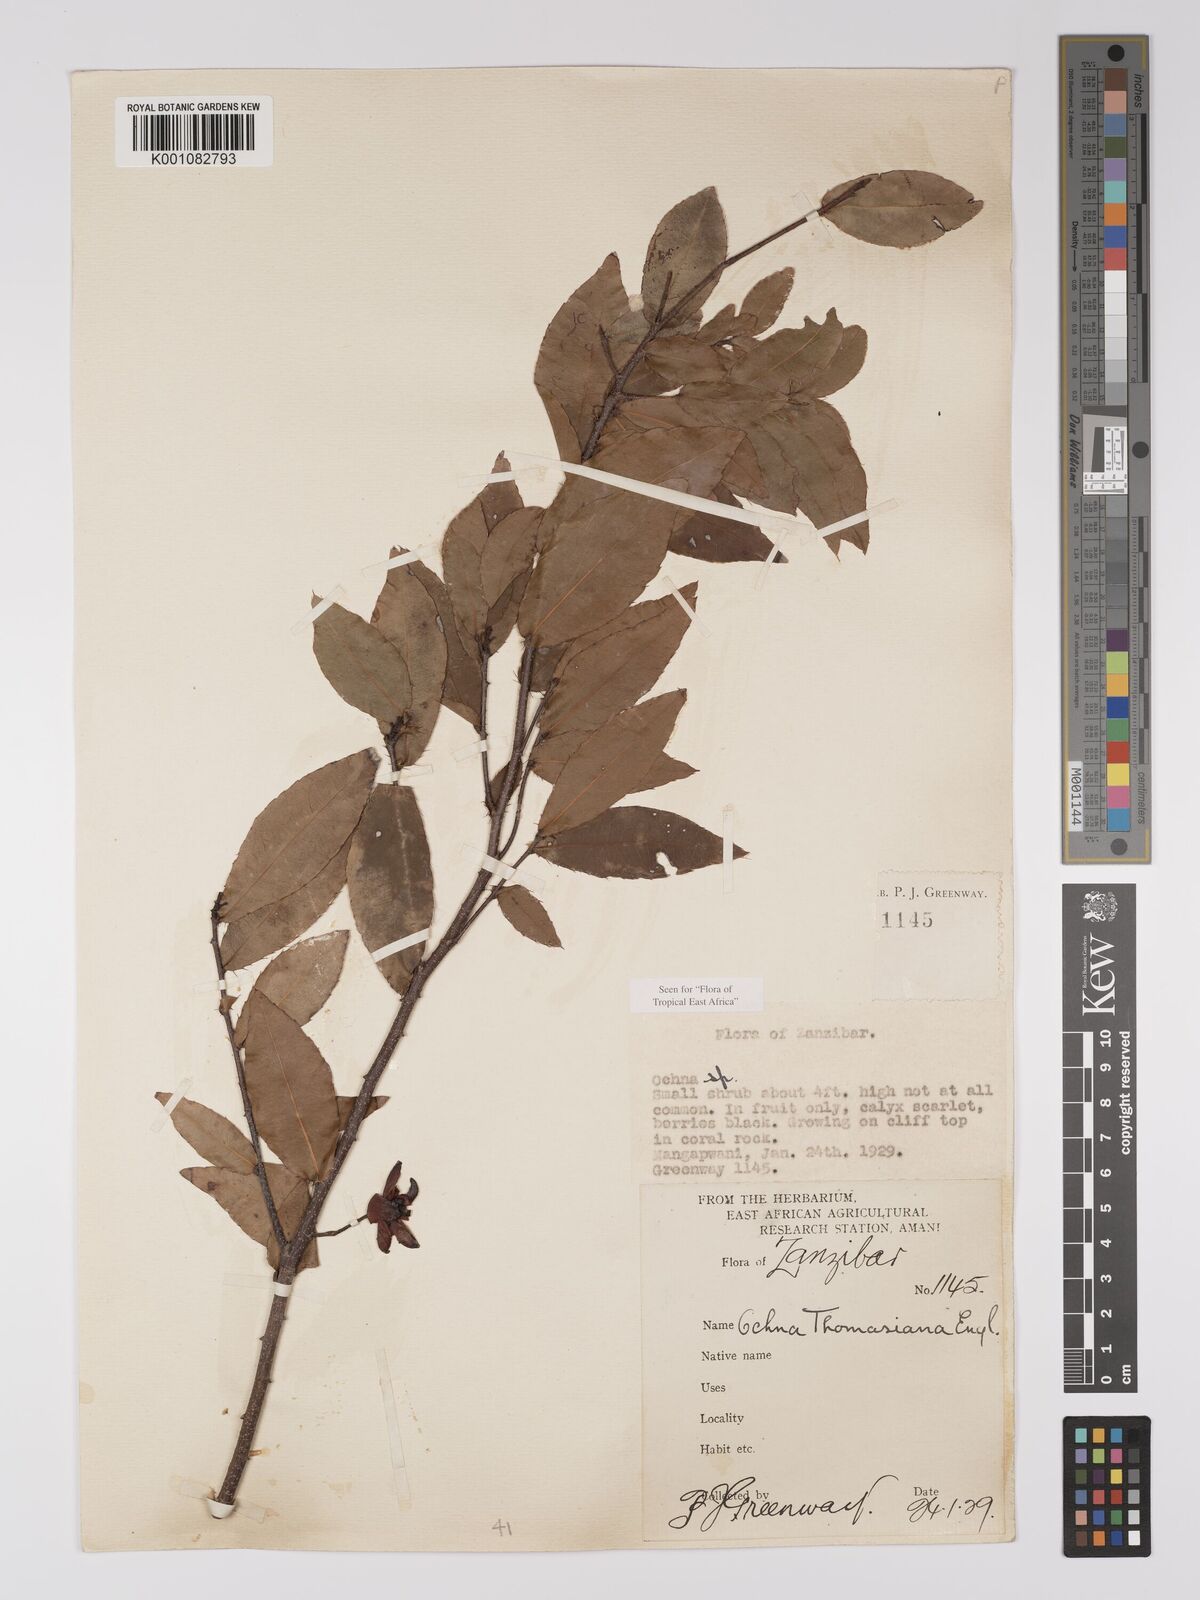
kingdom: Plantae
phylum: Tracheophyta
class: Magnoliopsida
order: Malpighiales
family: Ochnaceae
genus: Ochna
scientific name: Ochna thomasiana
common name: Thomas' bird's-eye bush
